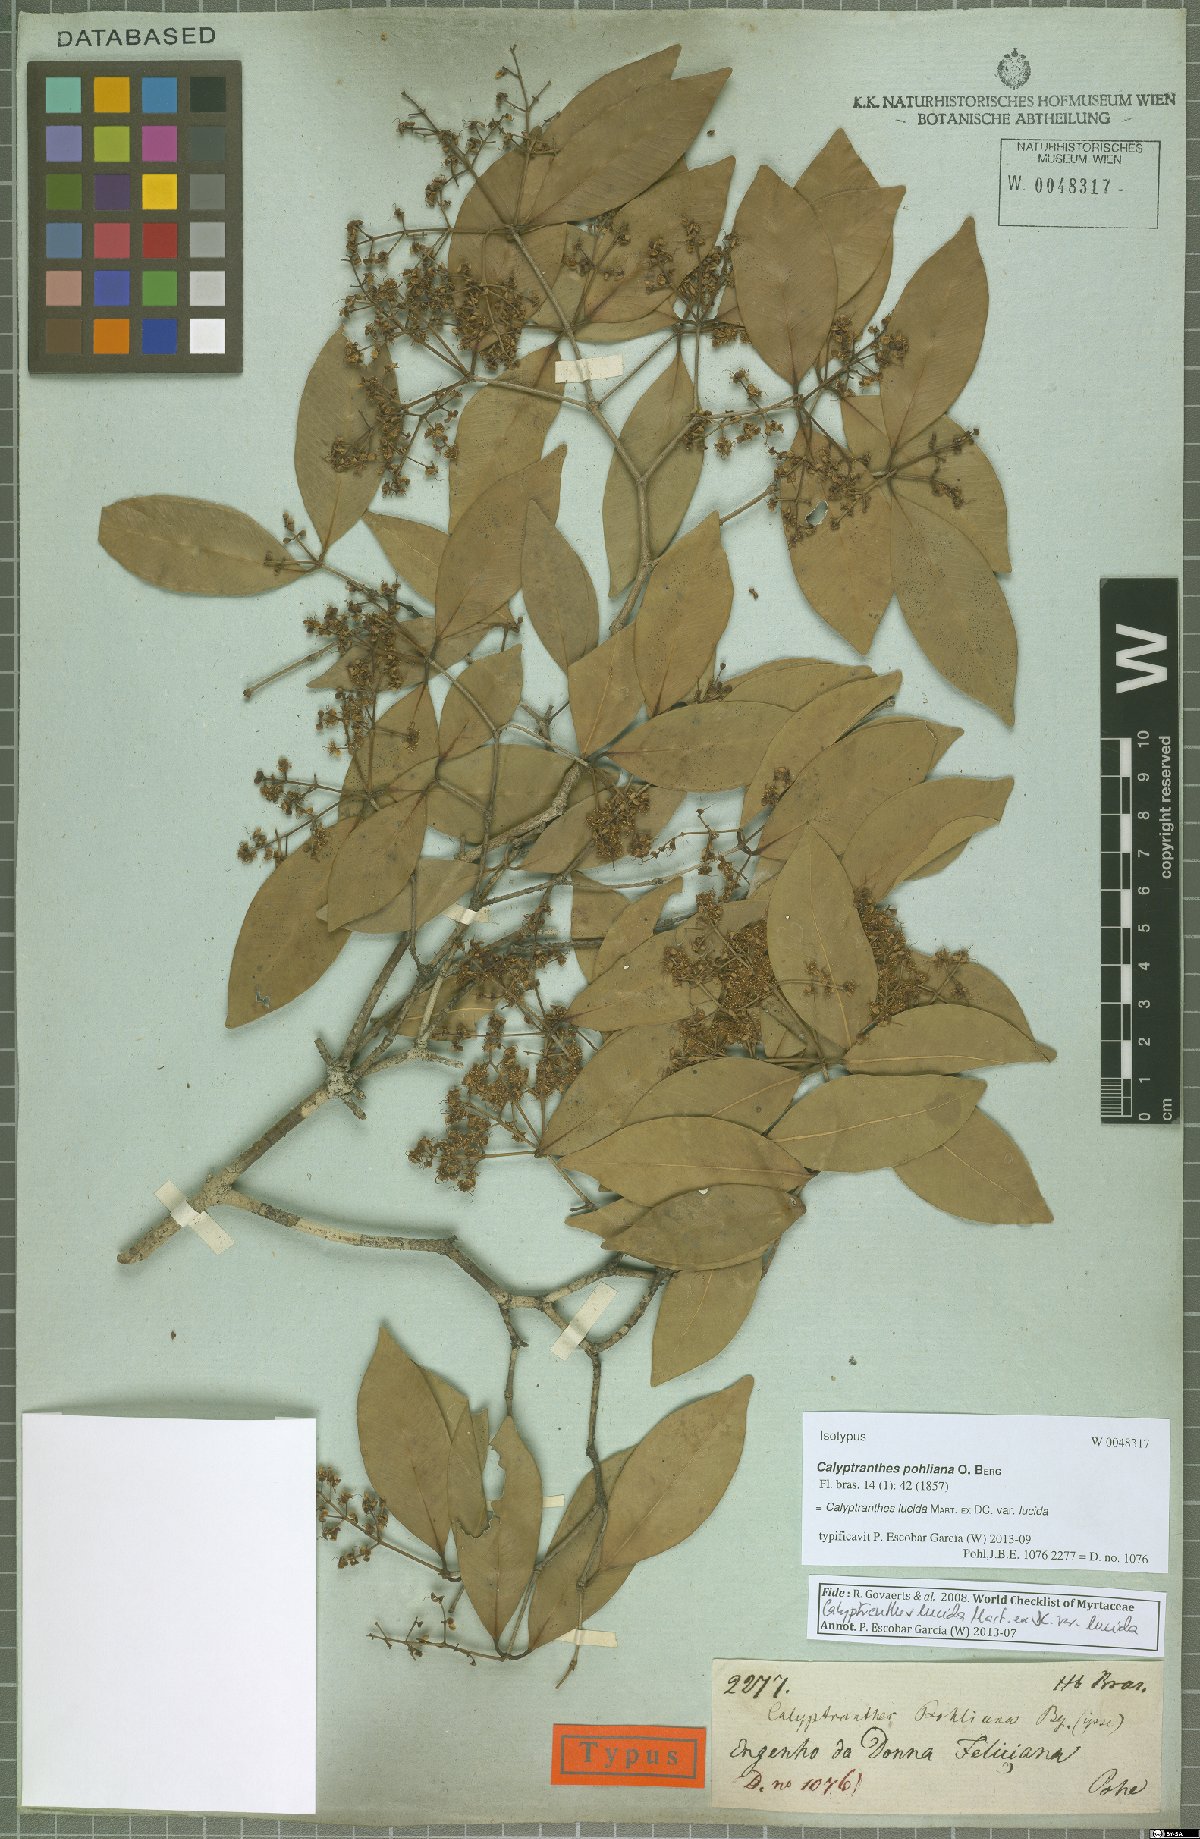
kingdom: Plantae
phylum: Tracheophyta
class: Magnoliopsida
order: Myrtales
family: Myrtaceae
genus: Myrcia
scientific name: Myrcia neolucida
